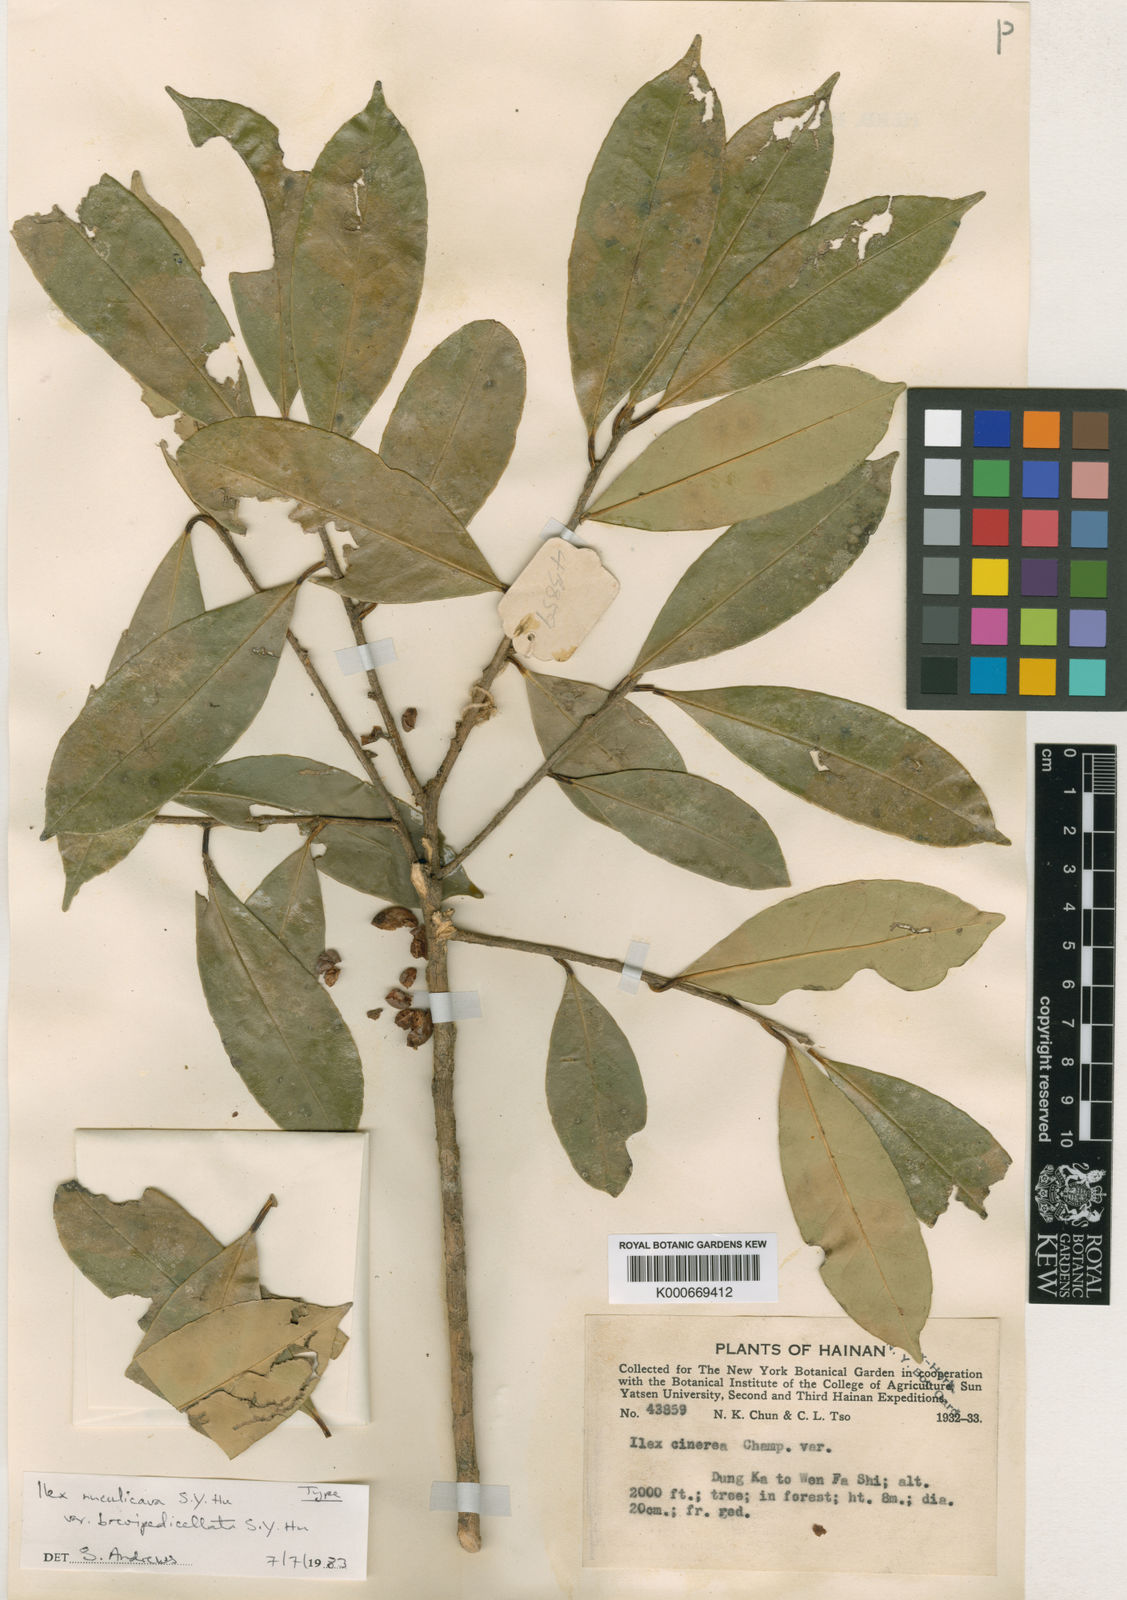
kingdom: Plantae
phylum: Tracheophyta
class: Magnoliopsida
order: Aquifoliales
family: Aquifoliaceae
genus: Ilex
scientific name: Ilex nuculicava
